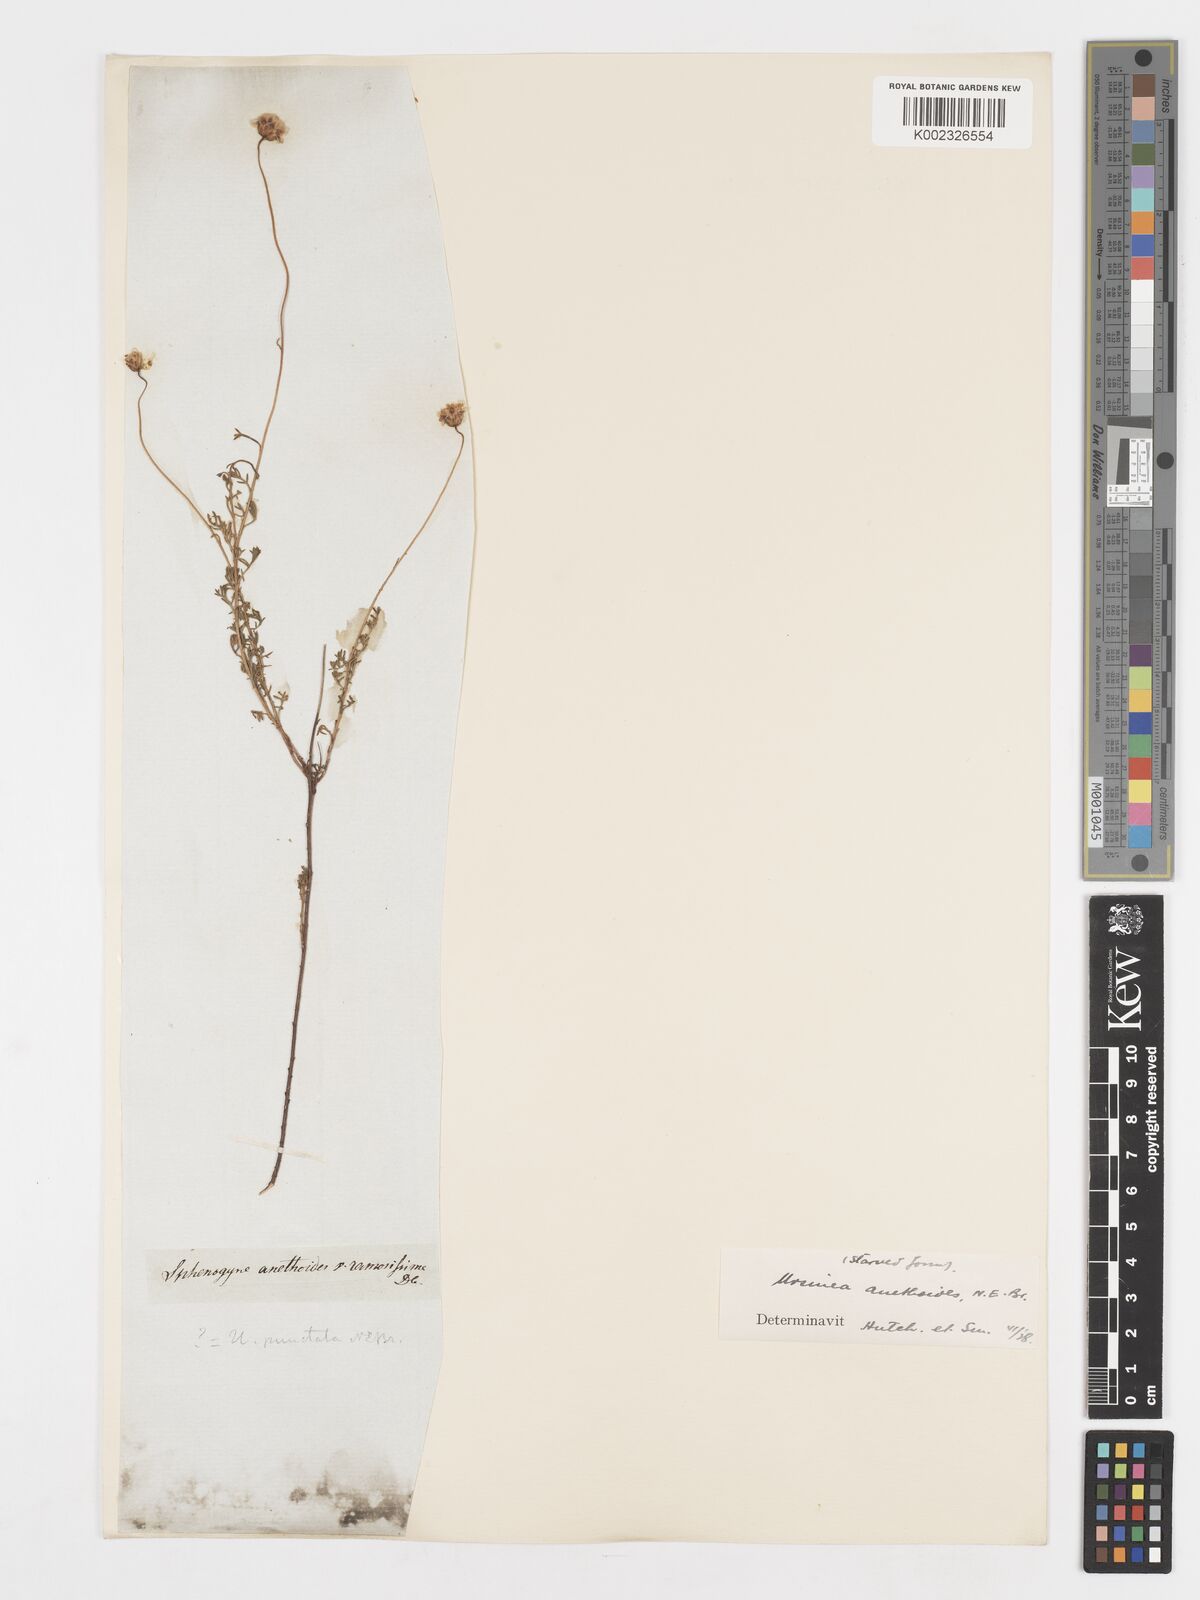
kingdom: Plantae
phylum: Tracheophyta
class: Magnoliopsida
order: Asterales
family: Asteraceae
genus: Ursinia
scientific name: Ursinia anethoides
